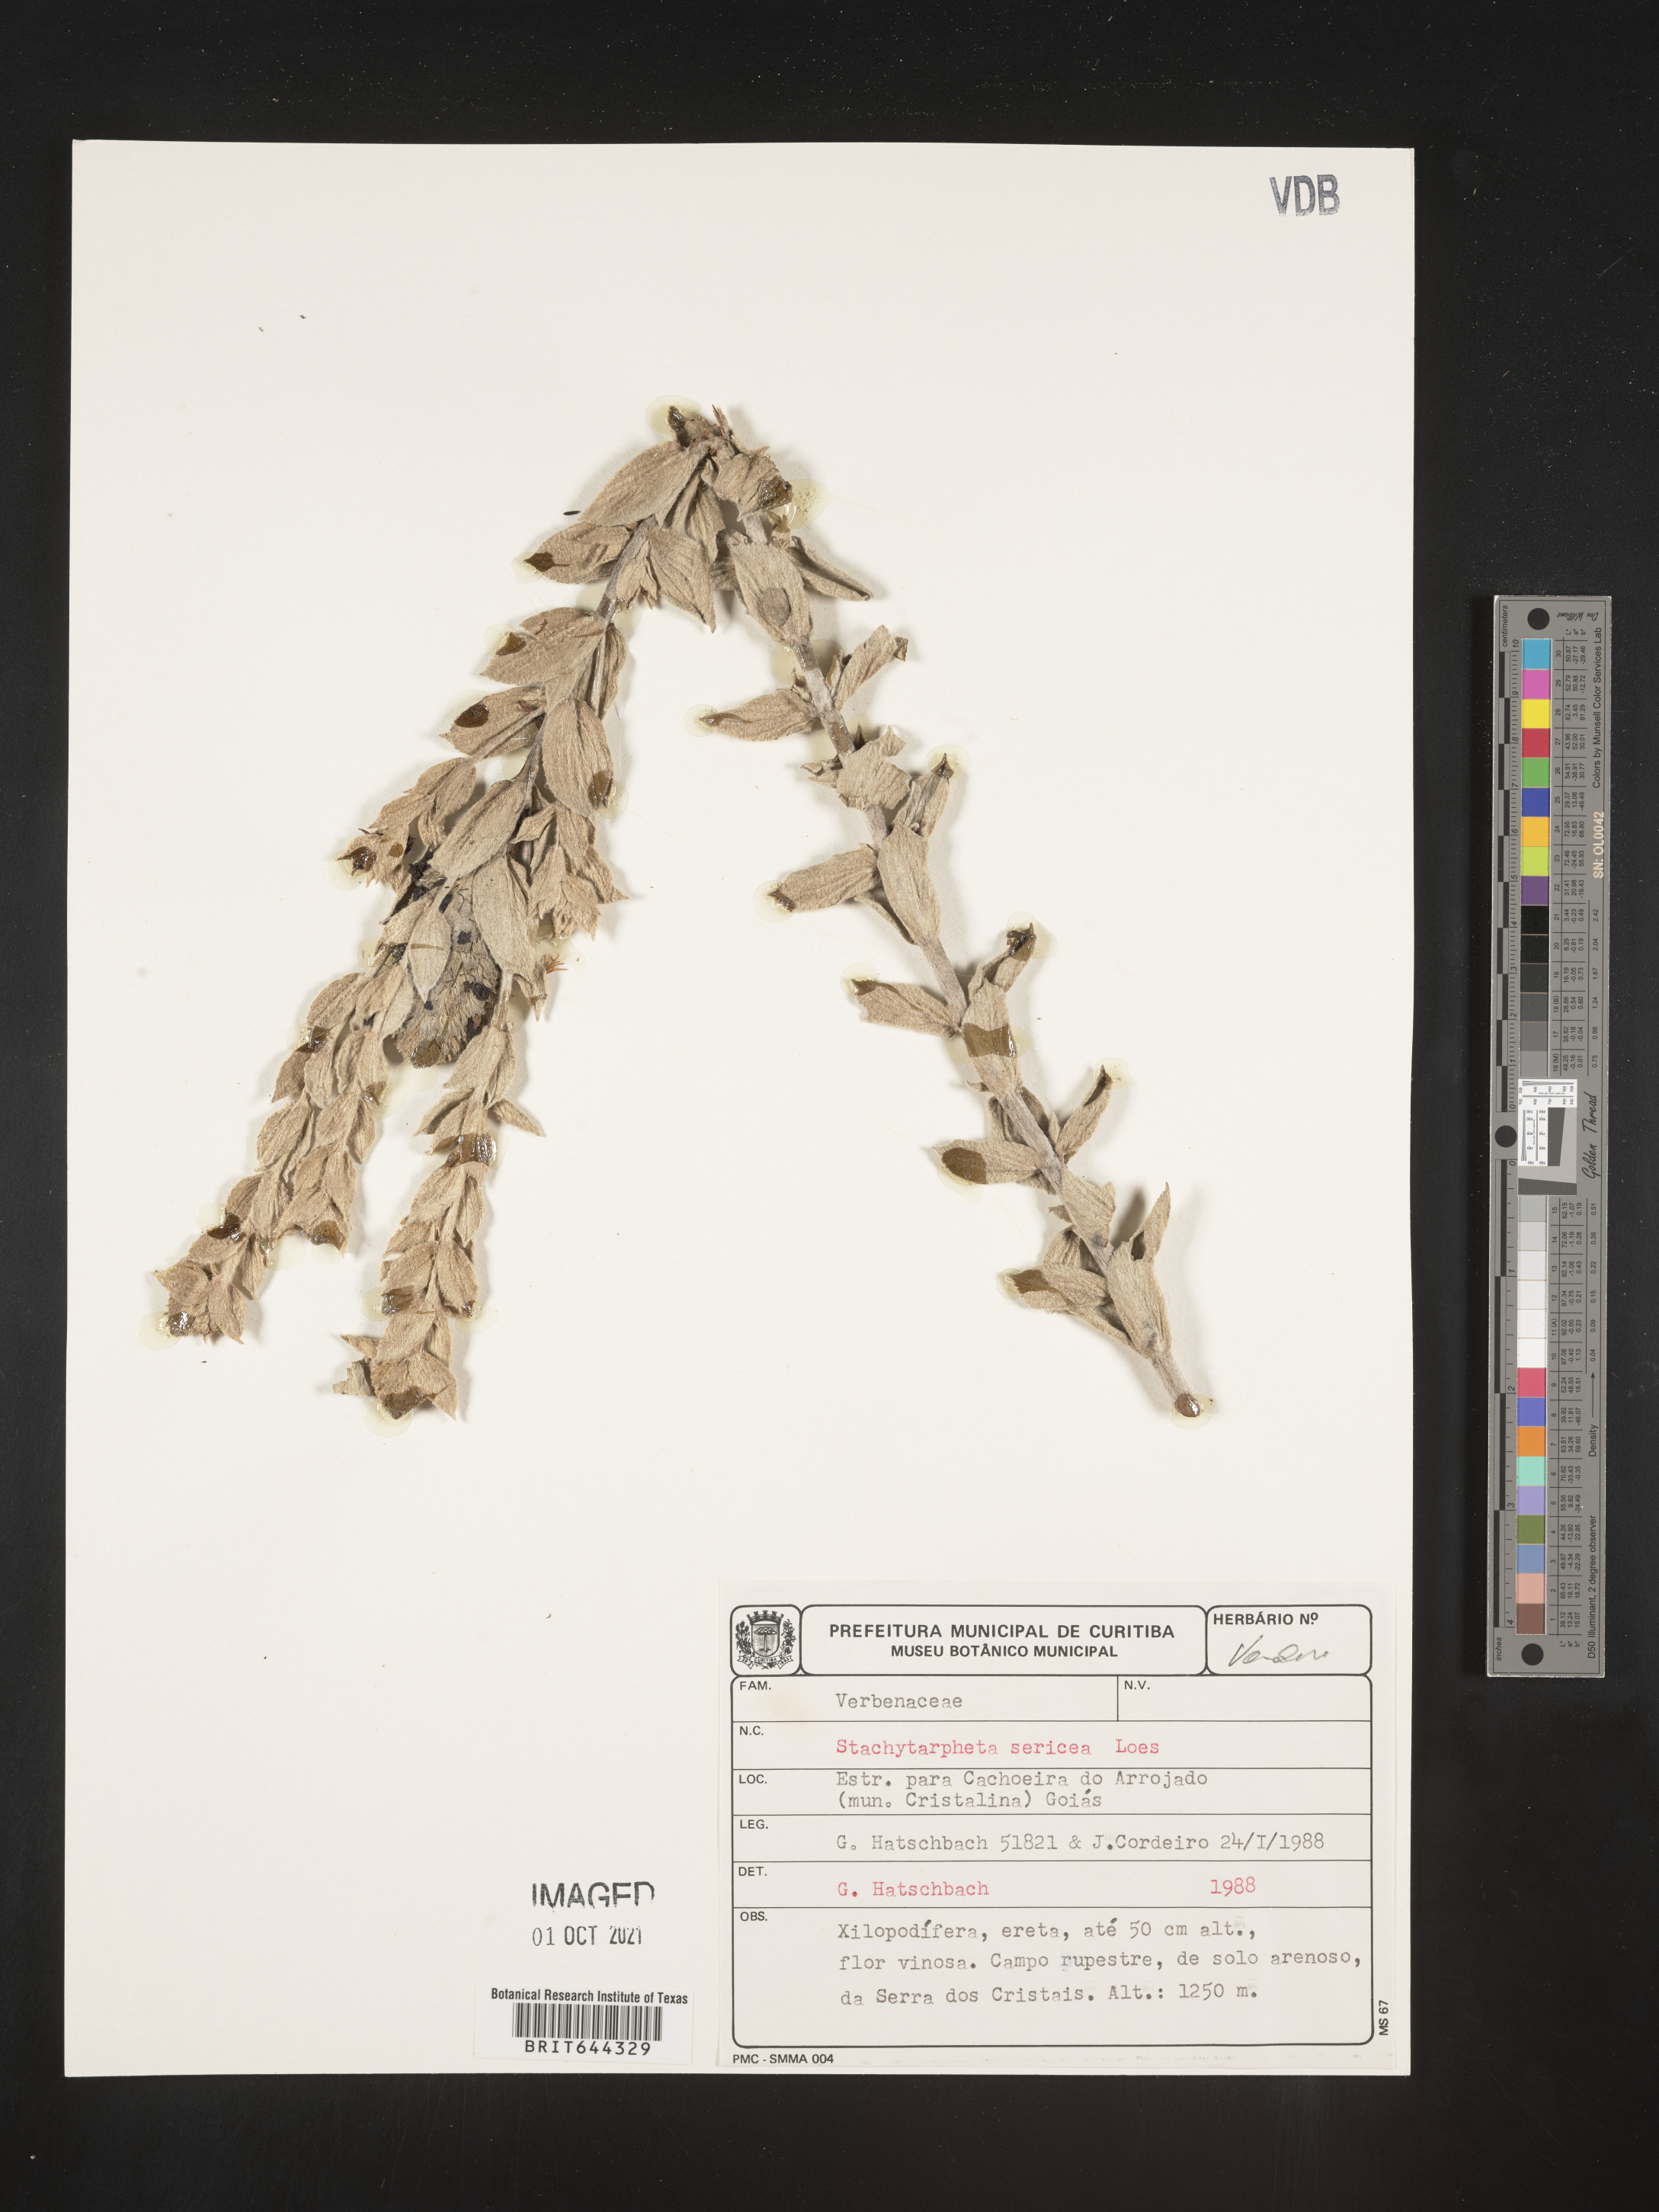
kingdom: Plantae
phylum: Tracheophyta
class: Magnoliopsida
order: Lamiales
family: Verbenaceae
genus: Stachytarpheta
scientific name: Stachytarpheta
